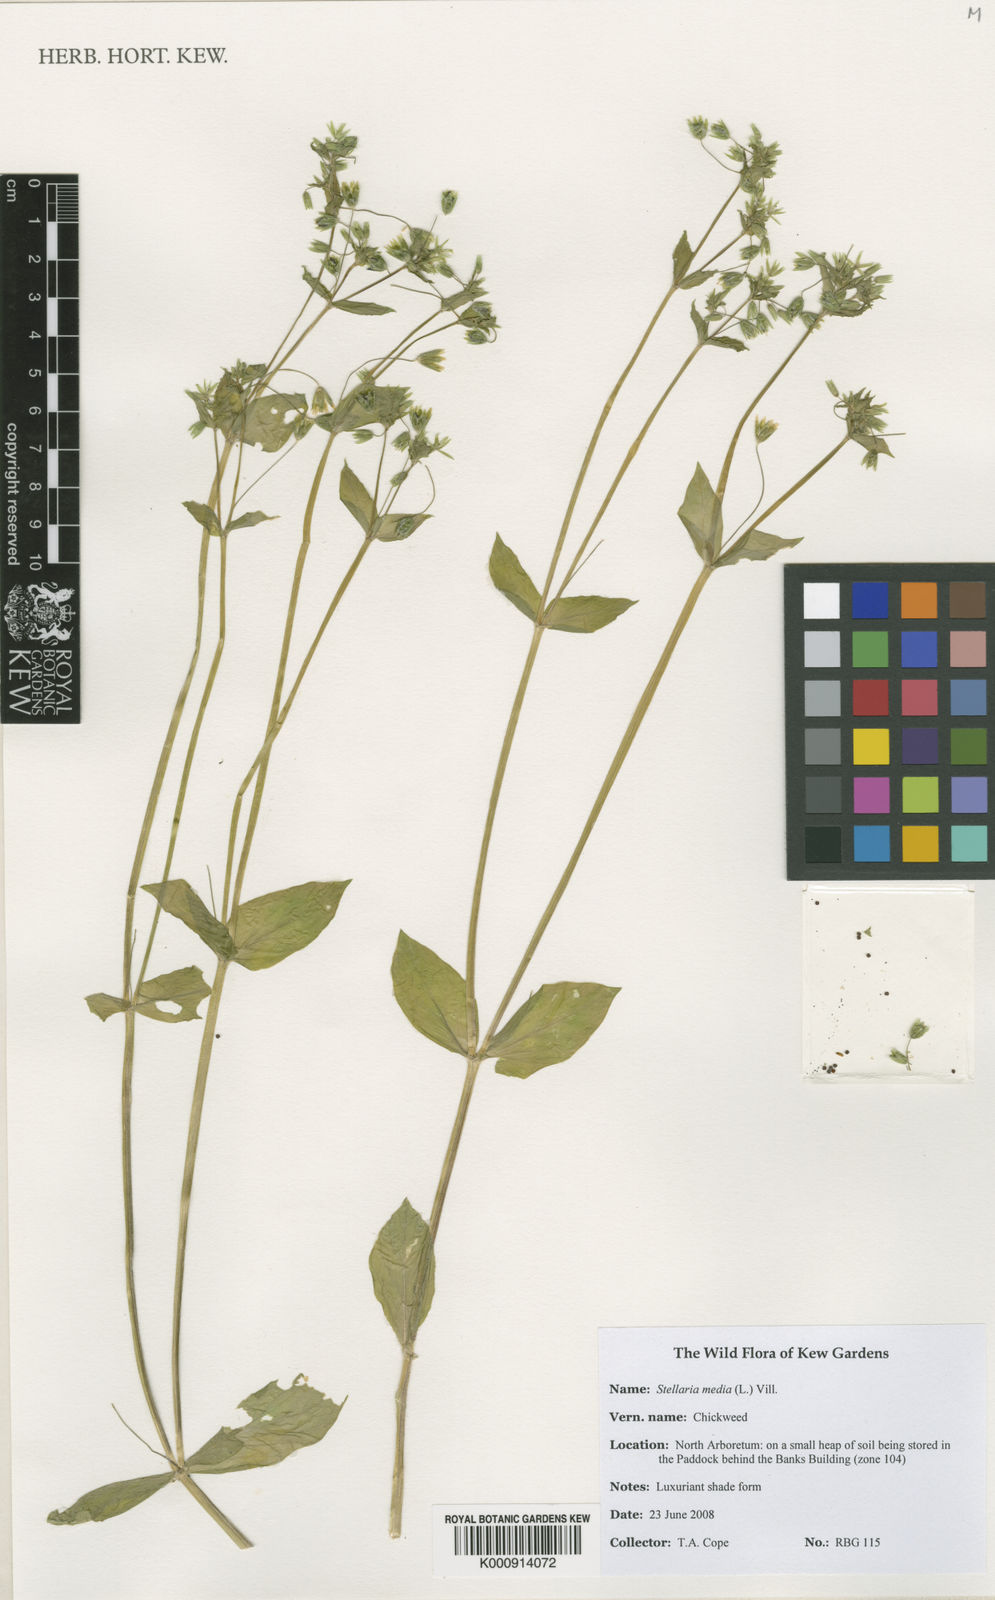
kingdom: Plantae
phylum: Tracheophyta
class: Magnoliopsida
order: Caryophyllales
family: Caryophyllaceae
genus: Stellaria
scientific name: Stellaria media
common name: Common chickweed
